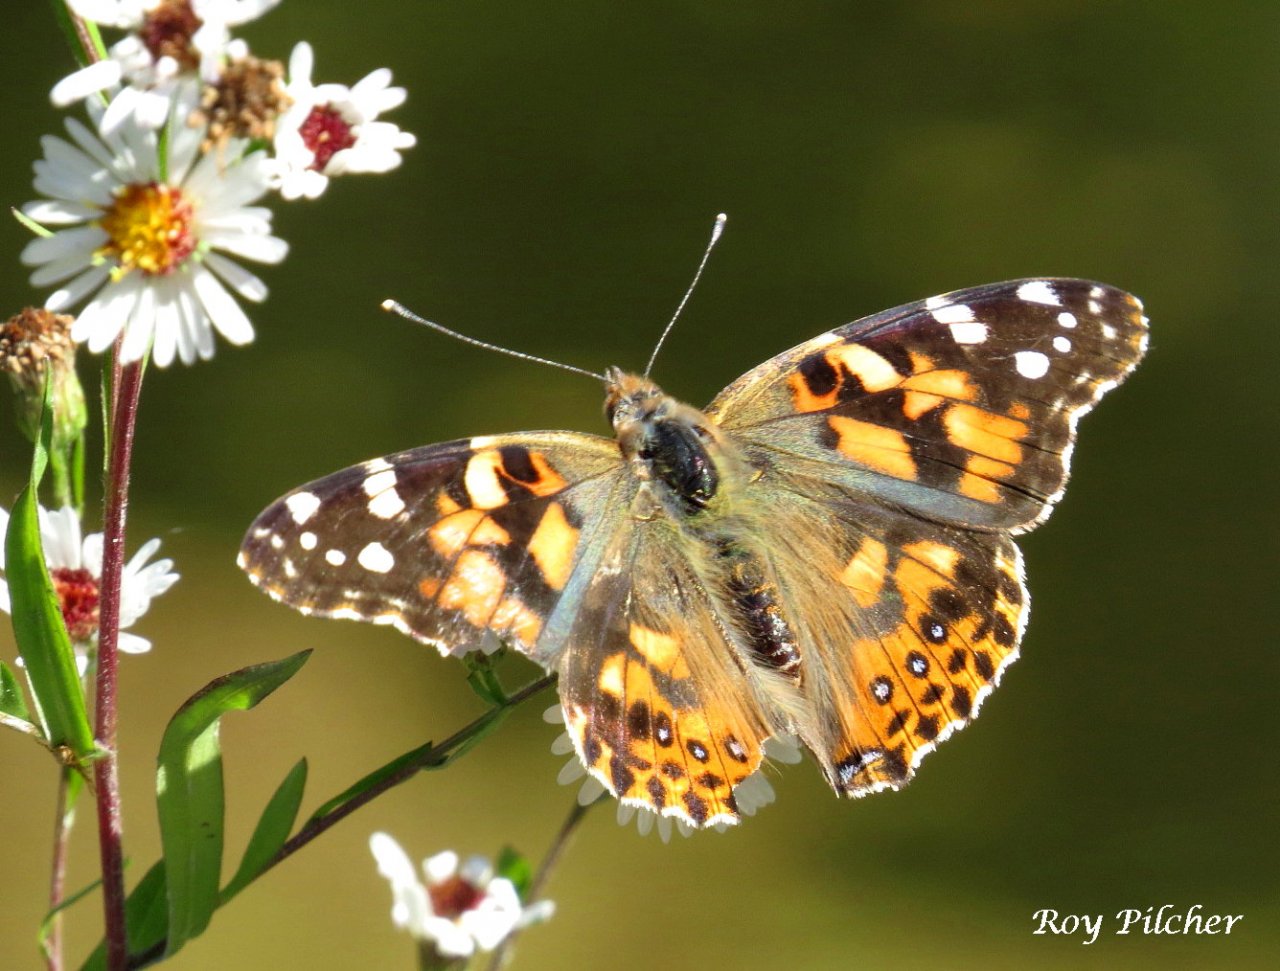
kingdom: Animalia
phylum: Arthropoda
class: Insecta
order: Lepidoptera
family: Nymphalidae
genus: Vanessa
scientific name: Vanessa cardui
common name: Painted Lady
